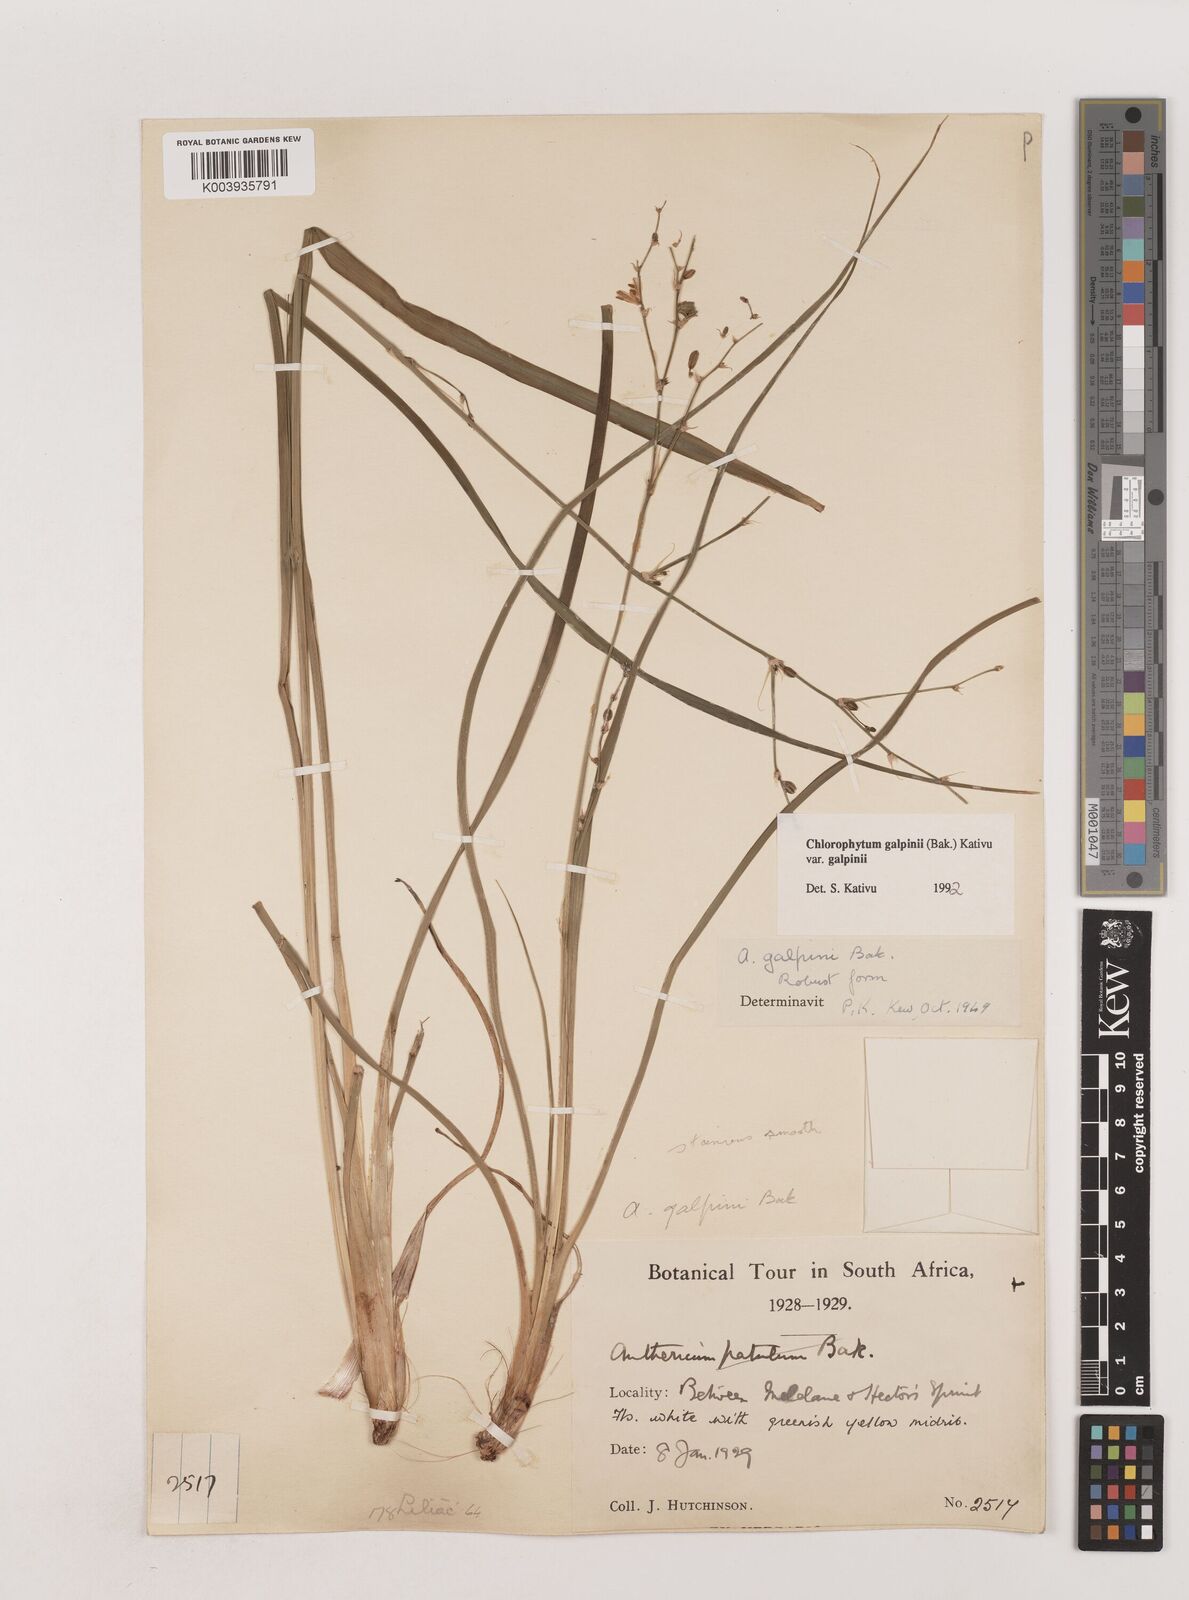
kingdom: Plantae
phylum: Tracheophyta
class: Liliopsida
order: Asparagales
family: Asparagaceae
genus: Chlorophytum
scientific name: Chlorophytum galpinii
